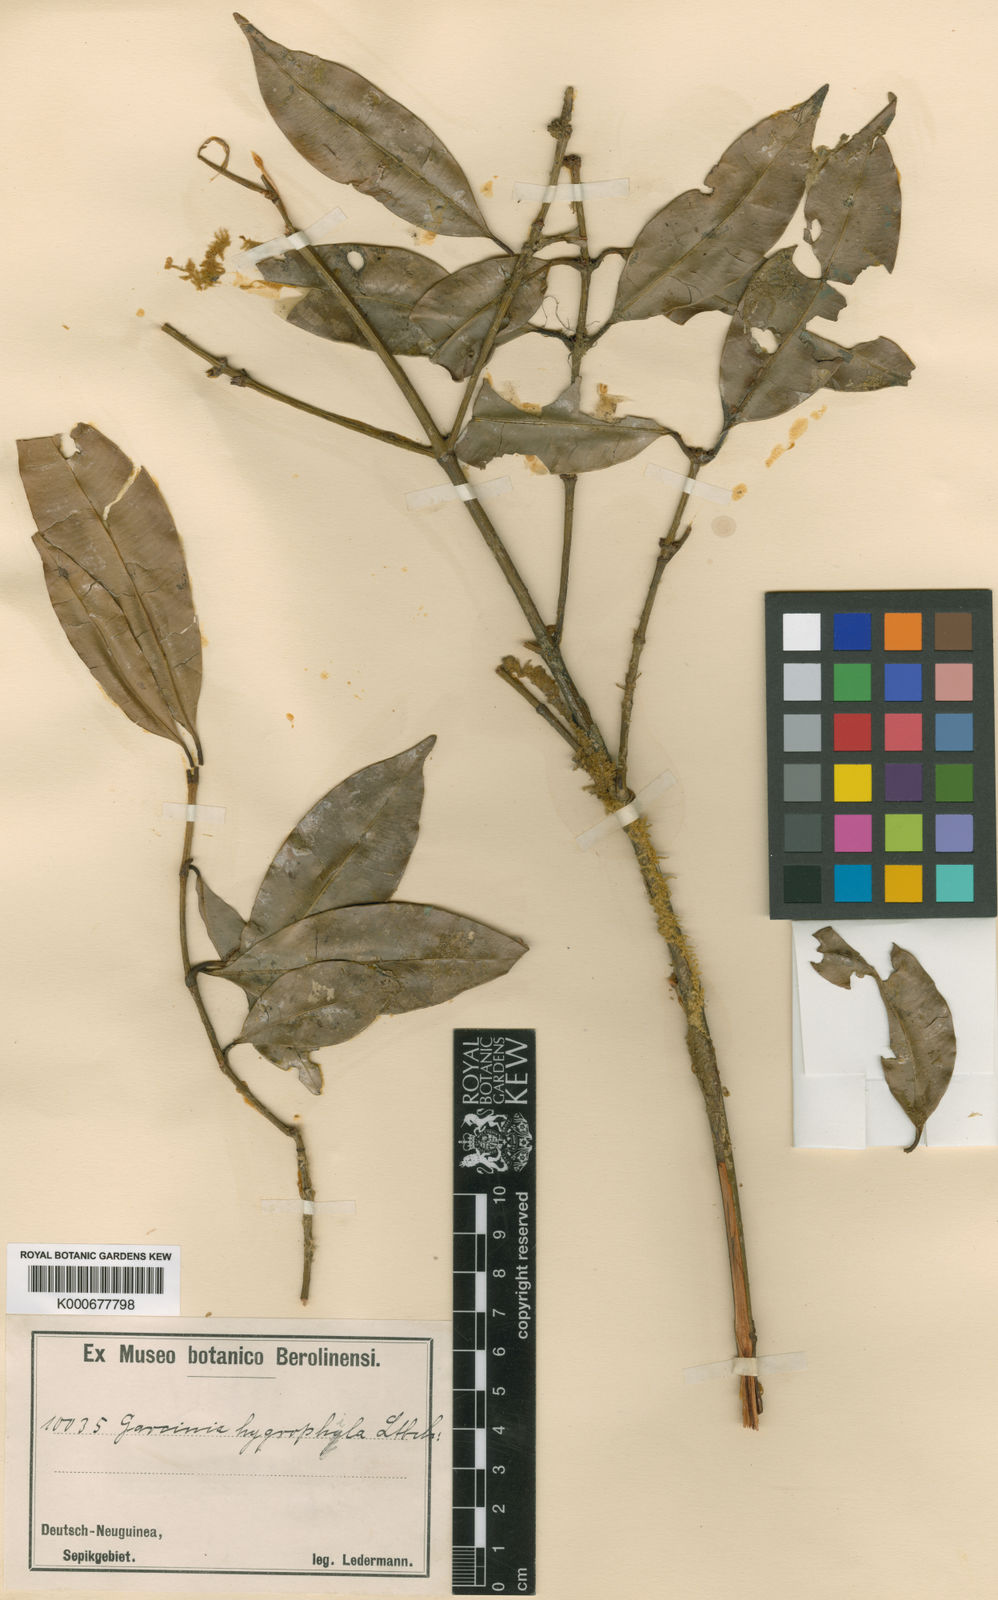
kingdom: Plantae
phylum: Tracheophyta
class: Magnoliopsida
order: Malpighiales
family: Clusiaceae
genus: Garcinia
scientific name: Garcinia hygrophila
